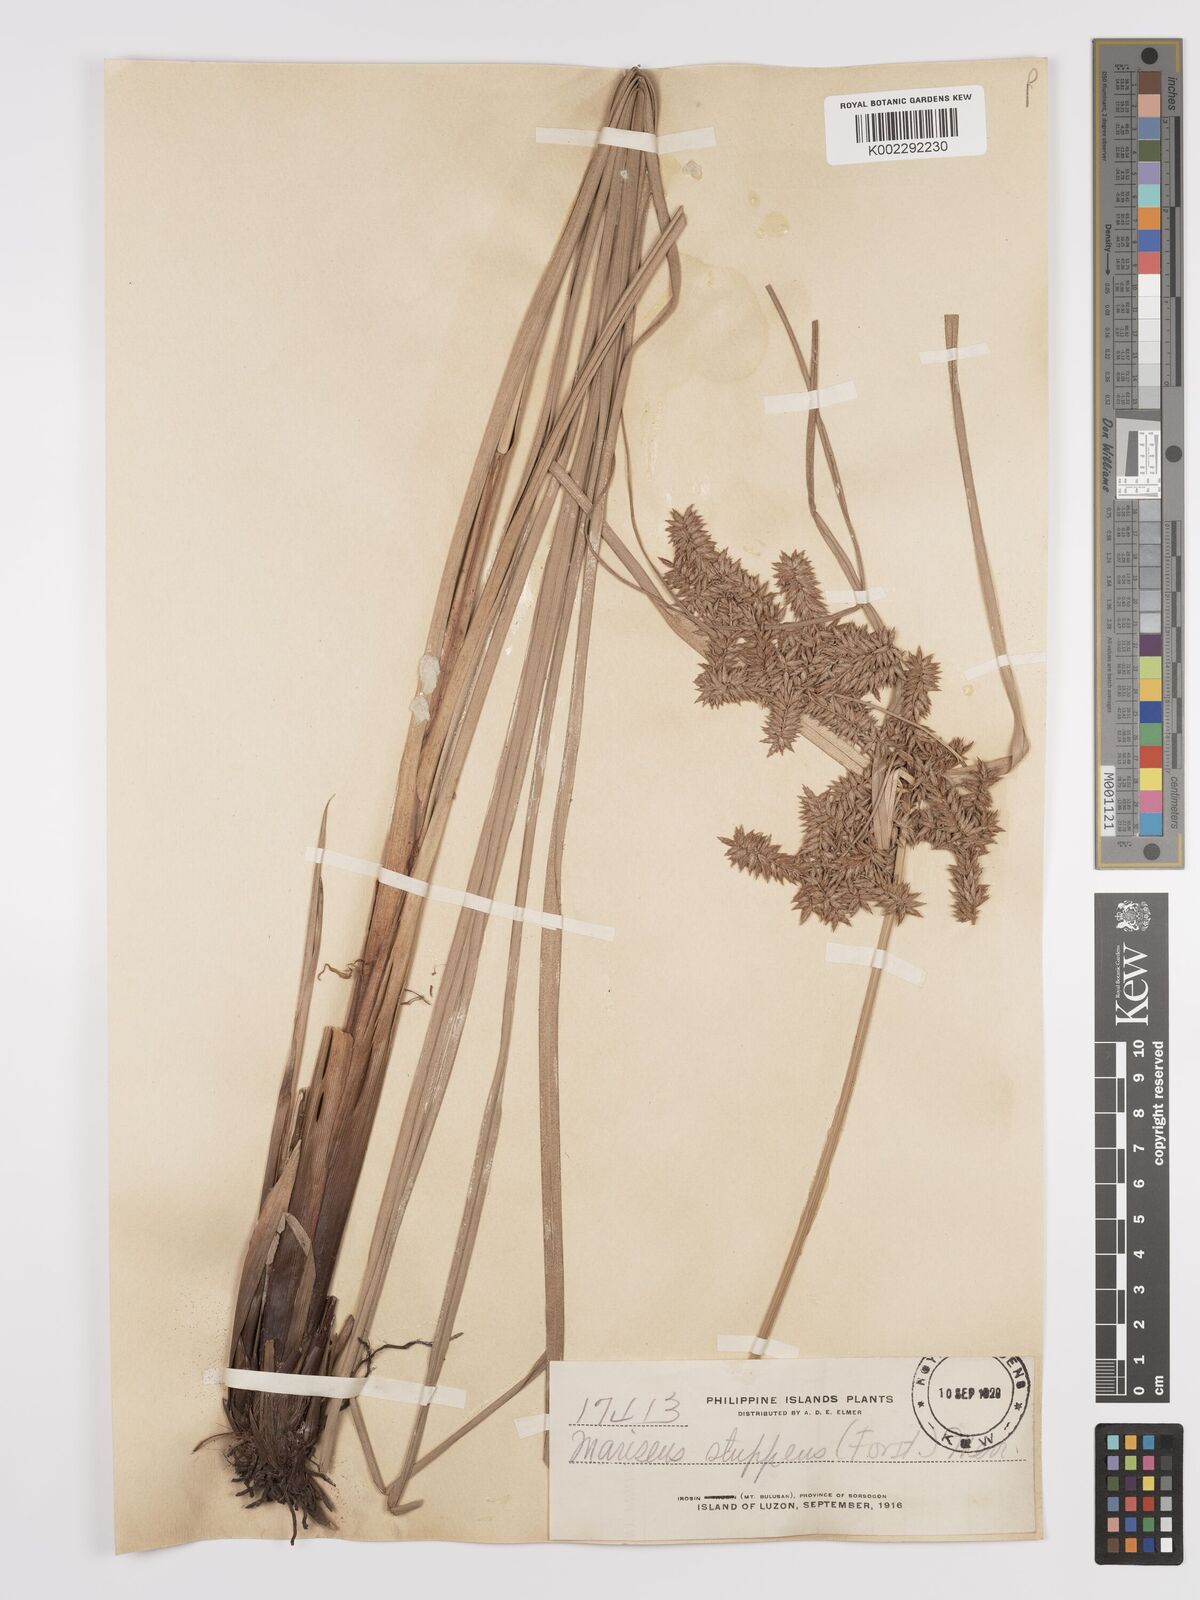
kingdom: Plantae
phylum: Tracheophyta
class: Liliopsida
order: Poales
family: Cyperaceae
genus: Cyperus
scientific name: Cyperus javanicus
